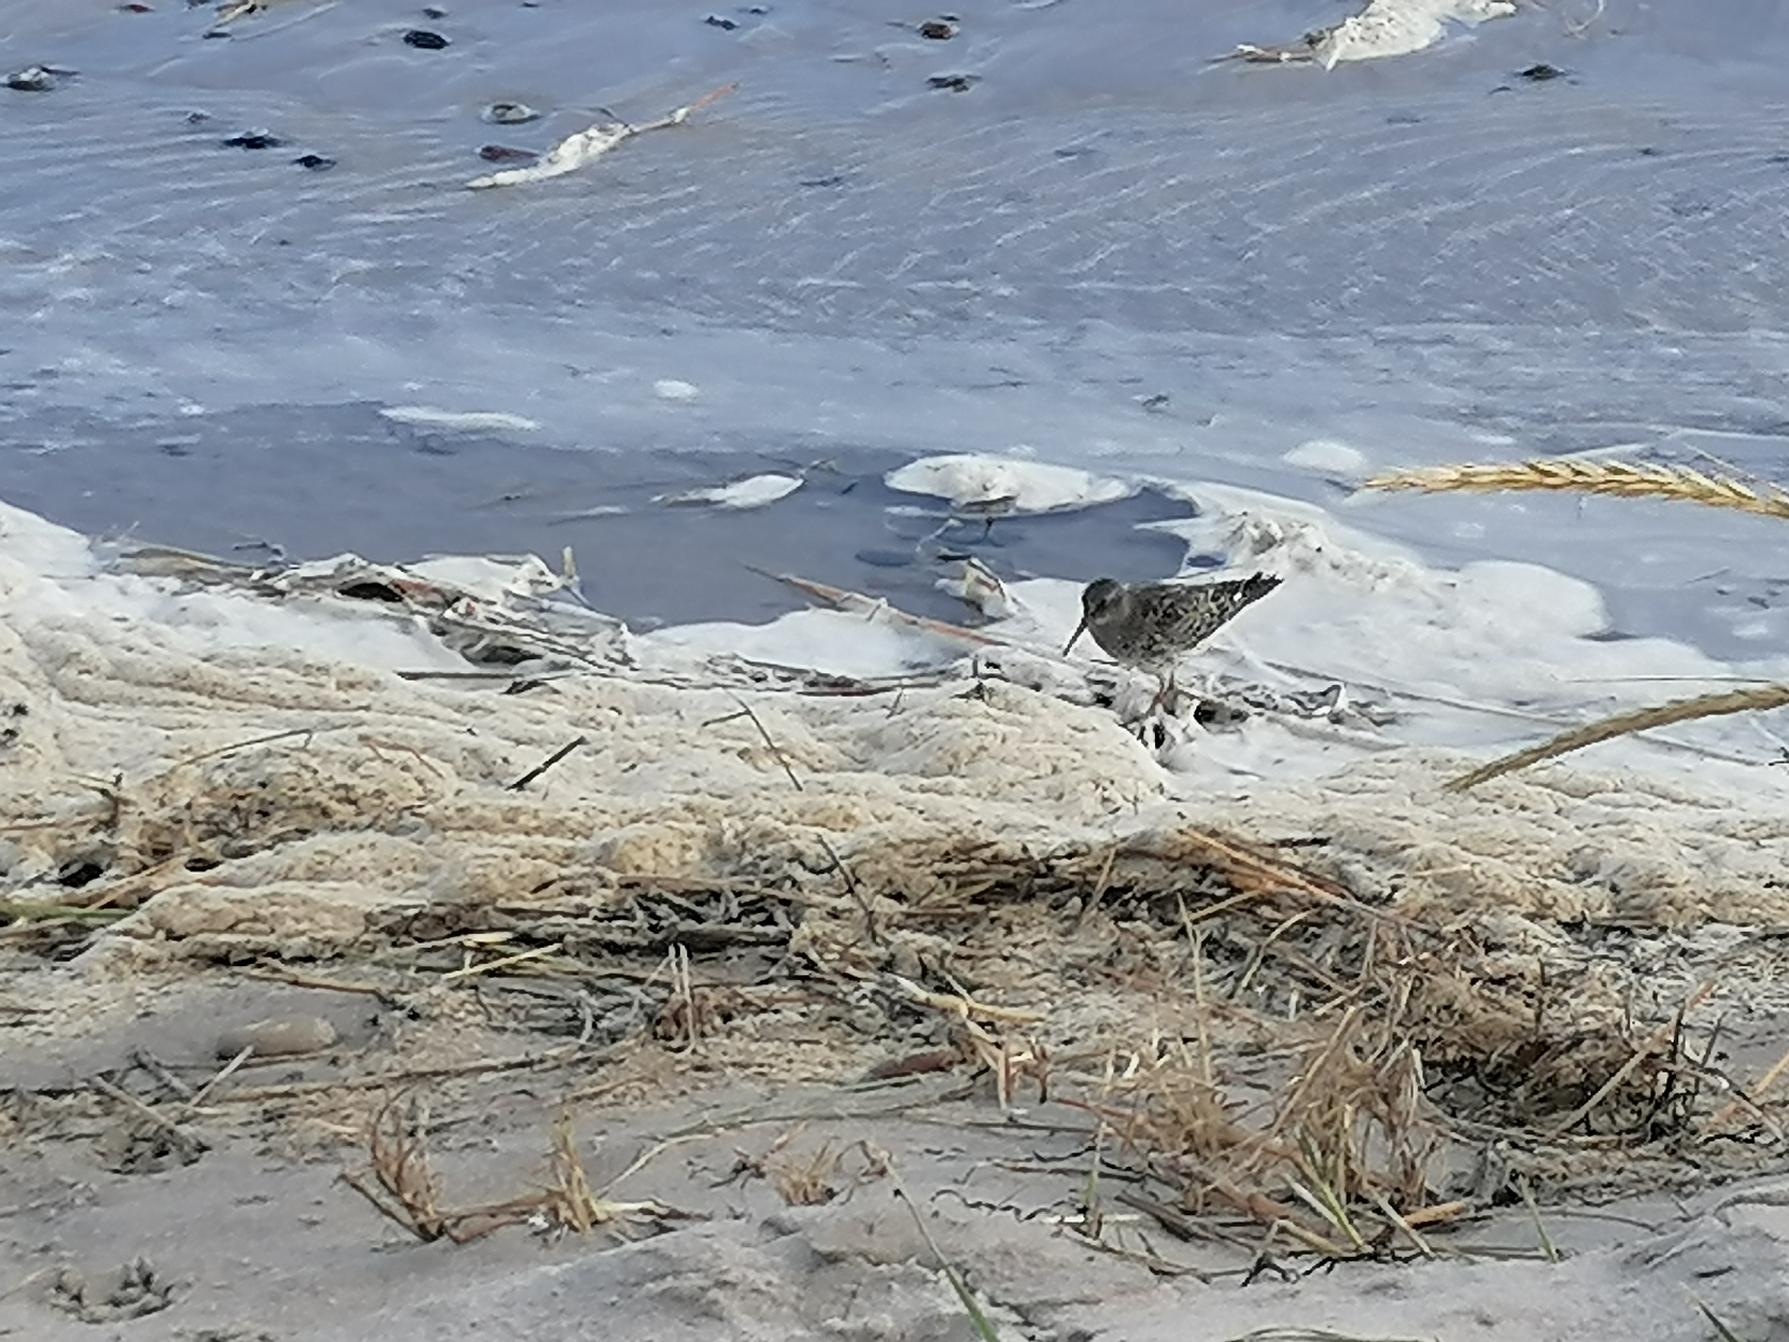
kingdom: Animalia
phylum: Chordata
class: Aves
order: Charadriiformes
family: Scolopacidae
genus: Calidris
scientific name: Calidris alpina
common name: Almindelig ryle
